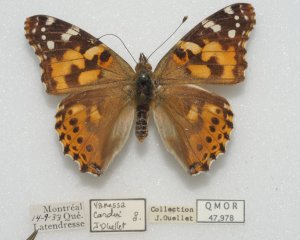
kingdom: Animalia
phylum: Arthropoda
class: Insecta
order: Lepidoptera
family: Nymphalidae
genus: Vanessa
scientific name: Vanessa cardui
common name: Painted Lady
